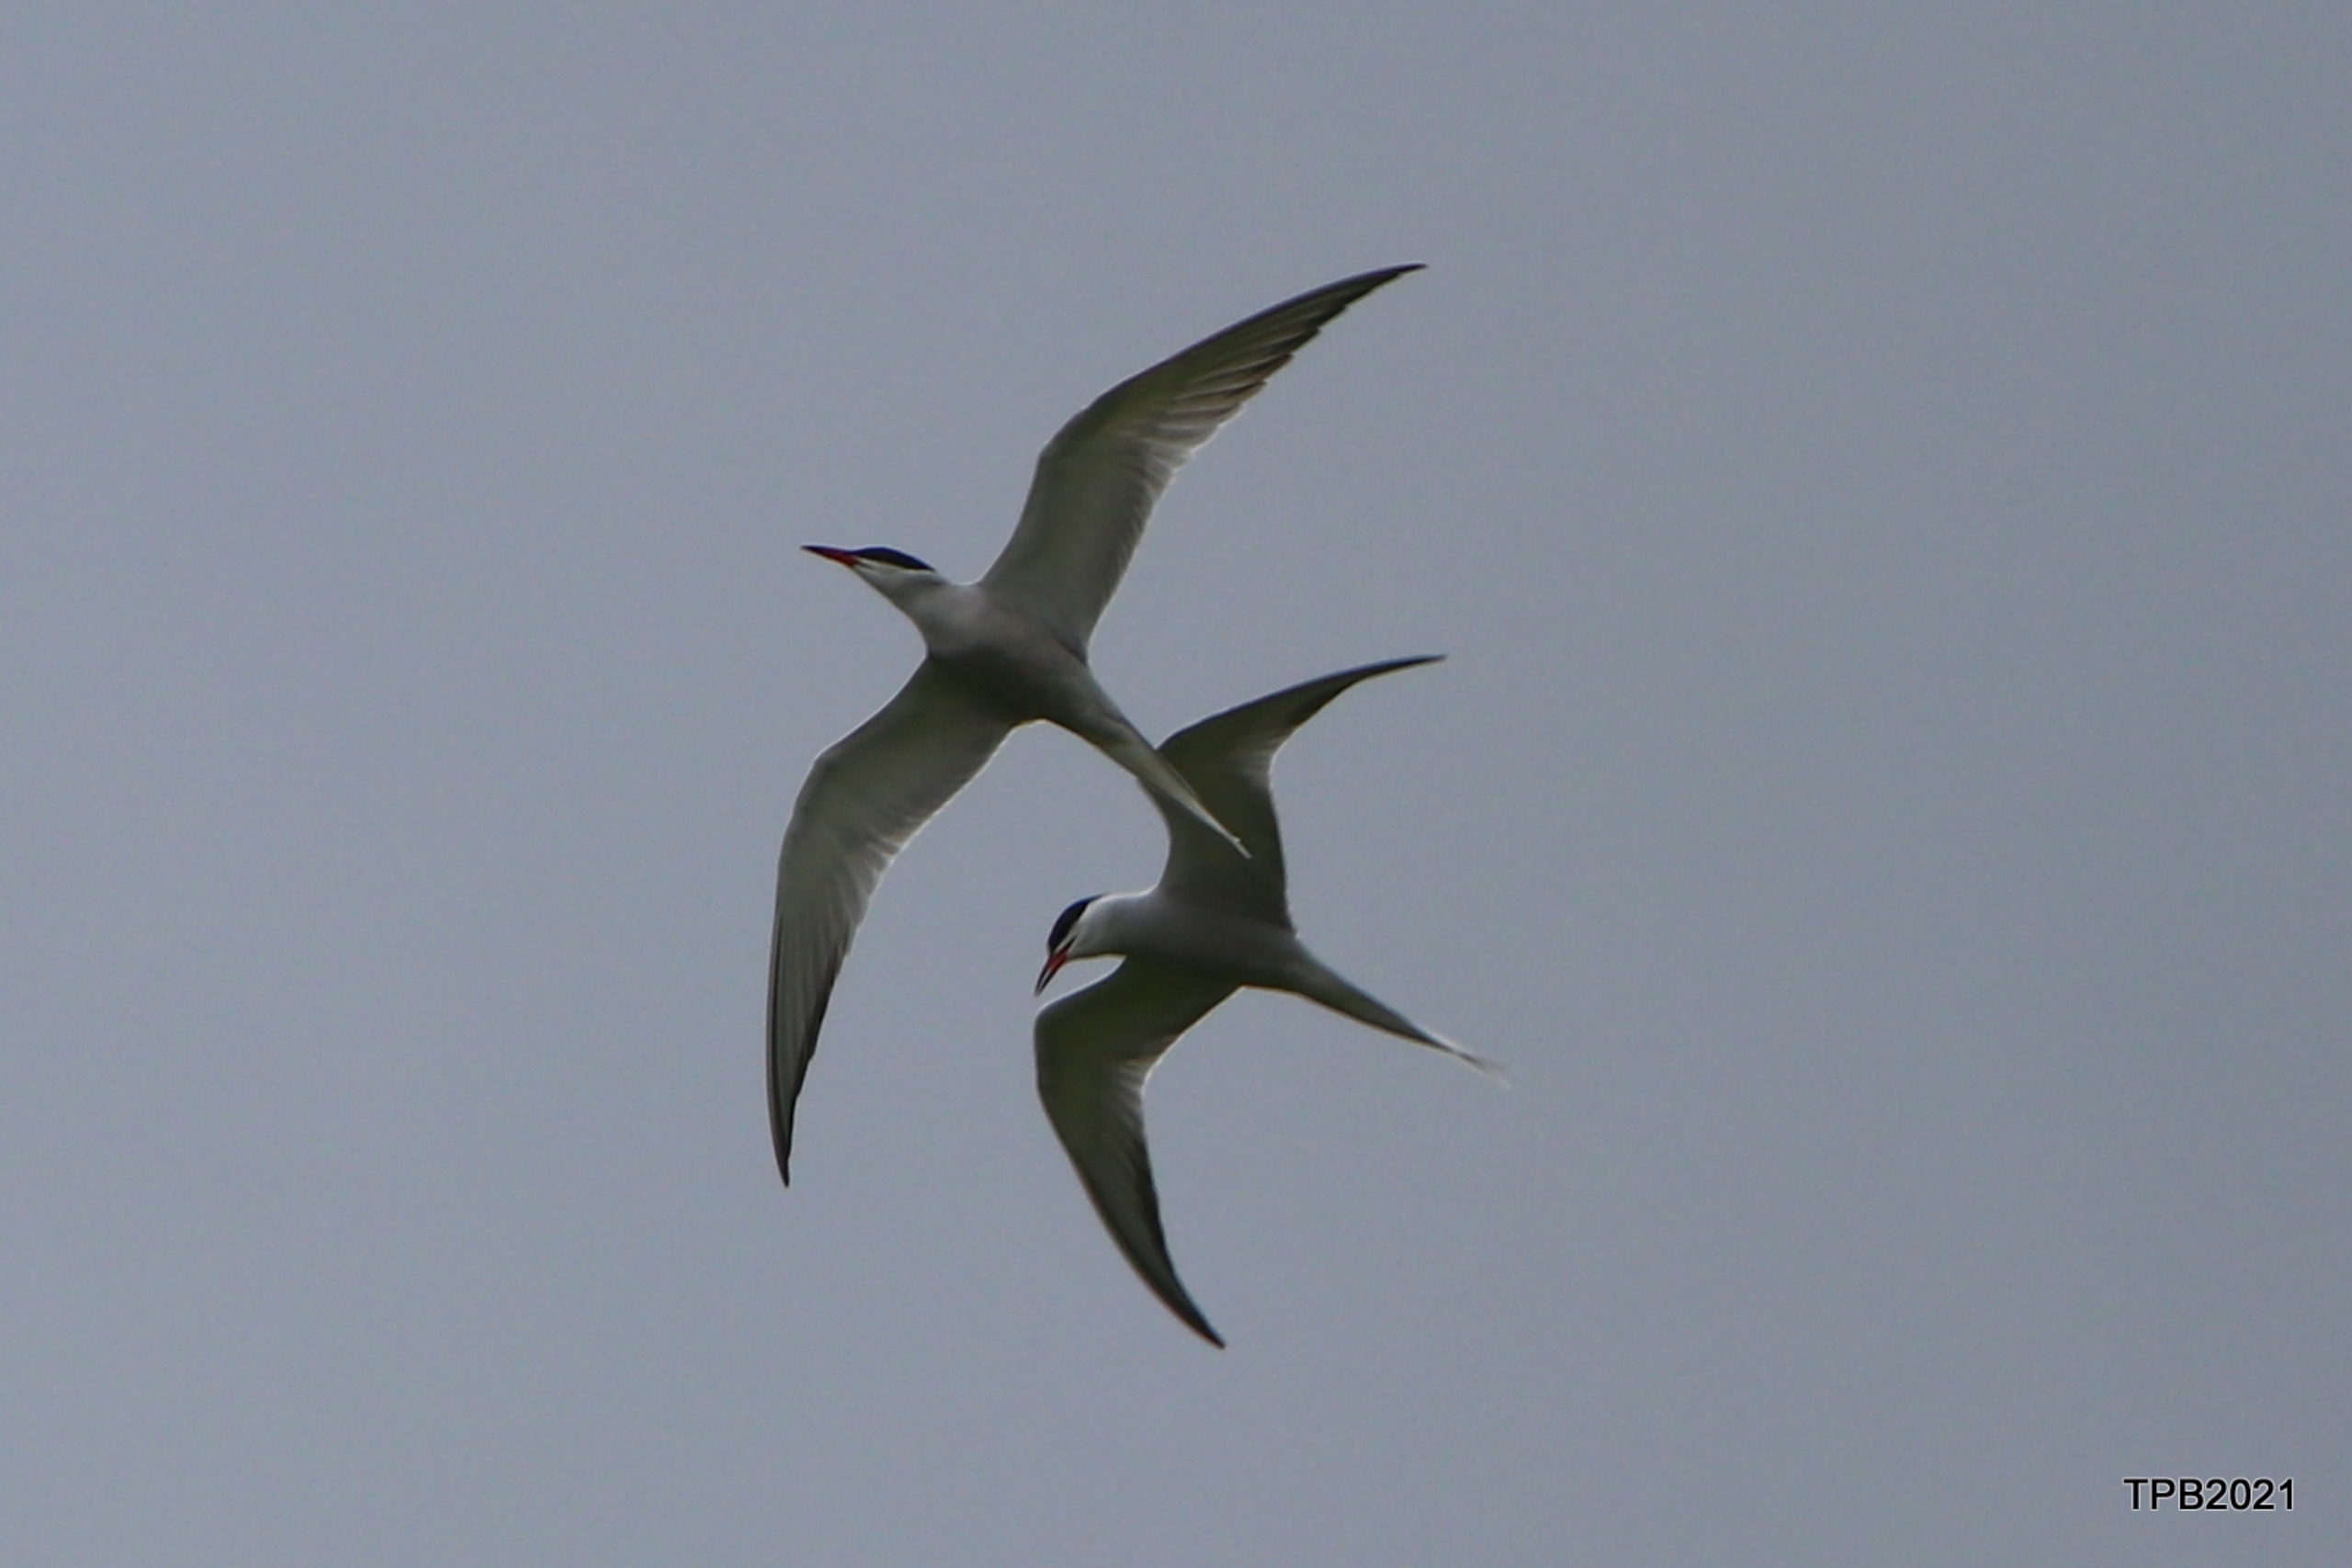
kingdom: Animalia
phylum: Chordata
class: Aves
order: Charadriiformes
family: Laridae
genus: Sterna
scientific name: Sterna hirundo
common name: Fjordterne
